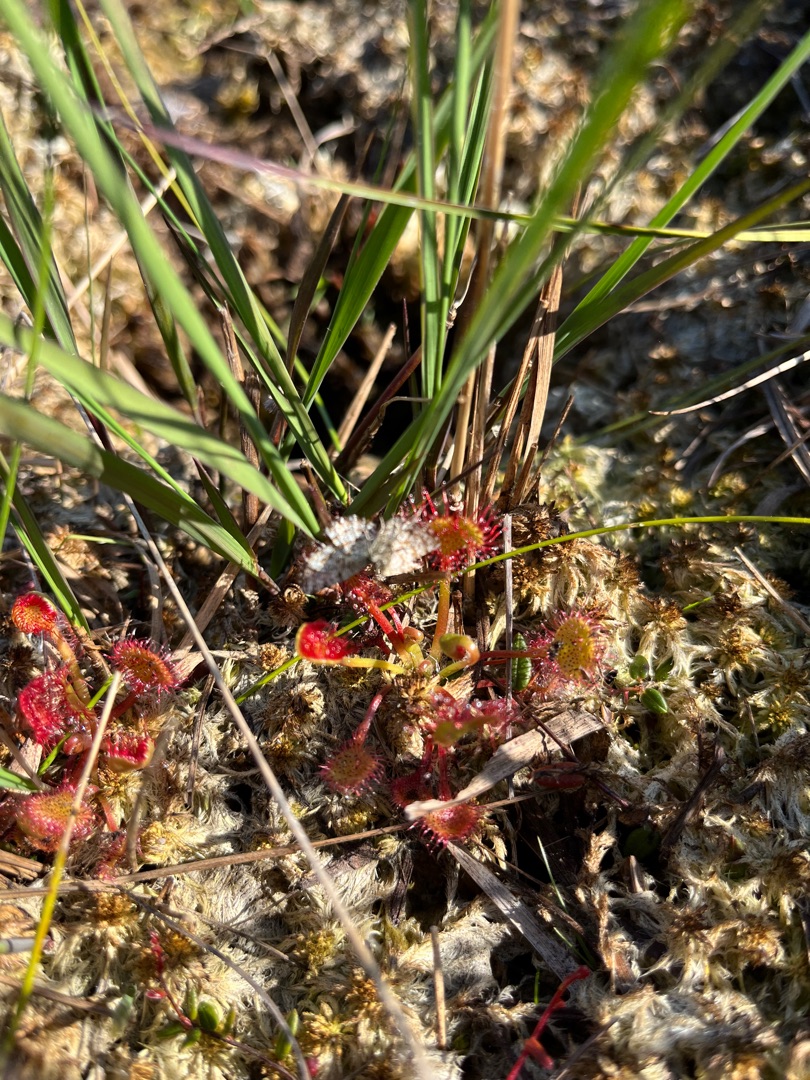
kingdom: Plantae
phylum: Tracheophyta
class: Magnoliopsida
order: Caryophyllales
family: Droseraceae
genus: Drosera
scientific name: Drosera rotundifolia
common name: Rundbladet soldug
